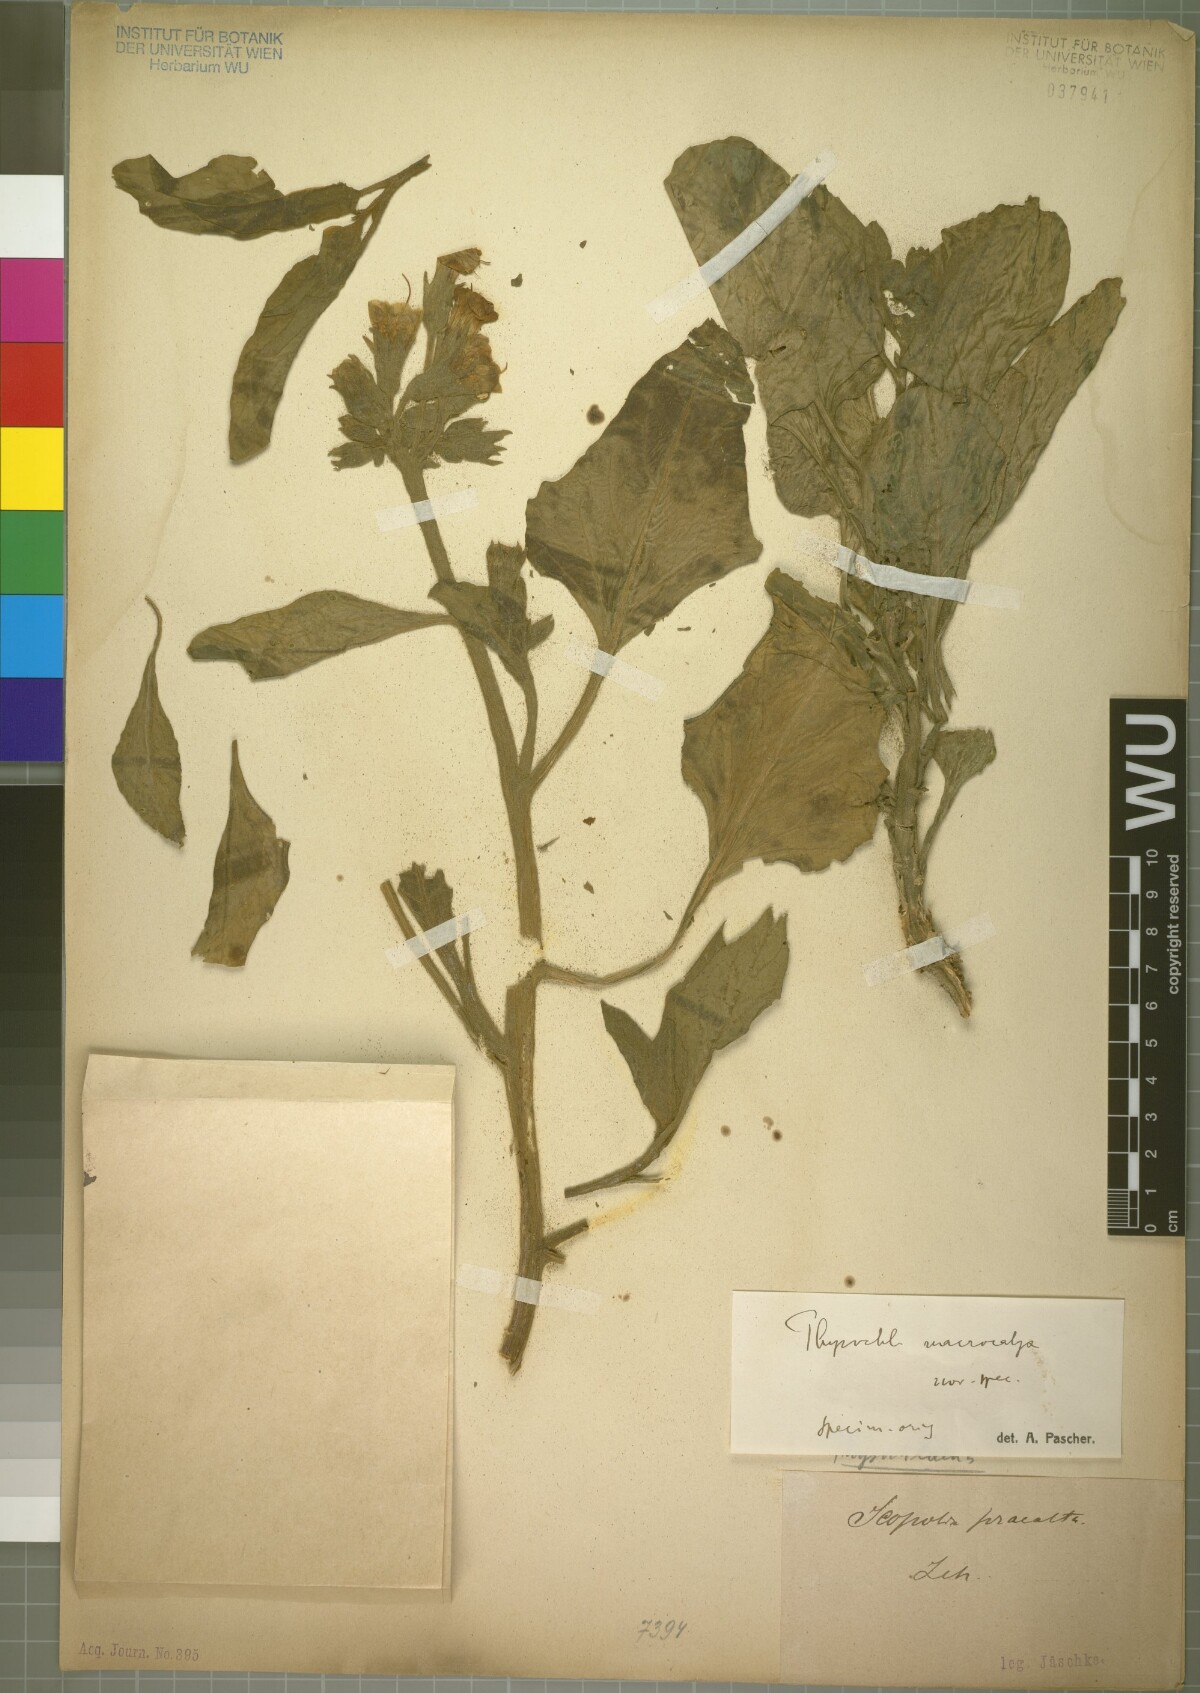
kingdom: Plantae
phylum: Tracheophyta
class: Magnoliopsida
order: Solanales
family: Solanaceae
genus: Physochlaina
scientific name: Physochlaina macrocalyx
